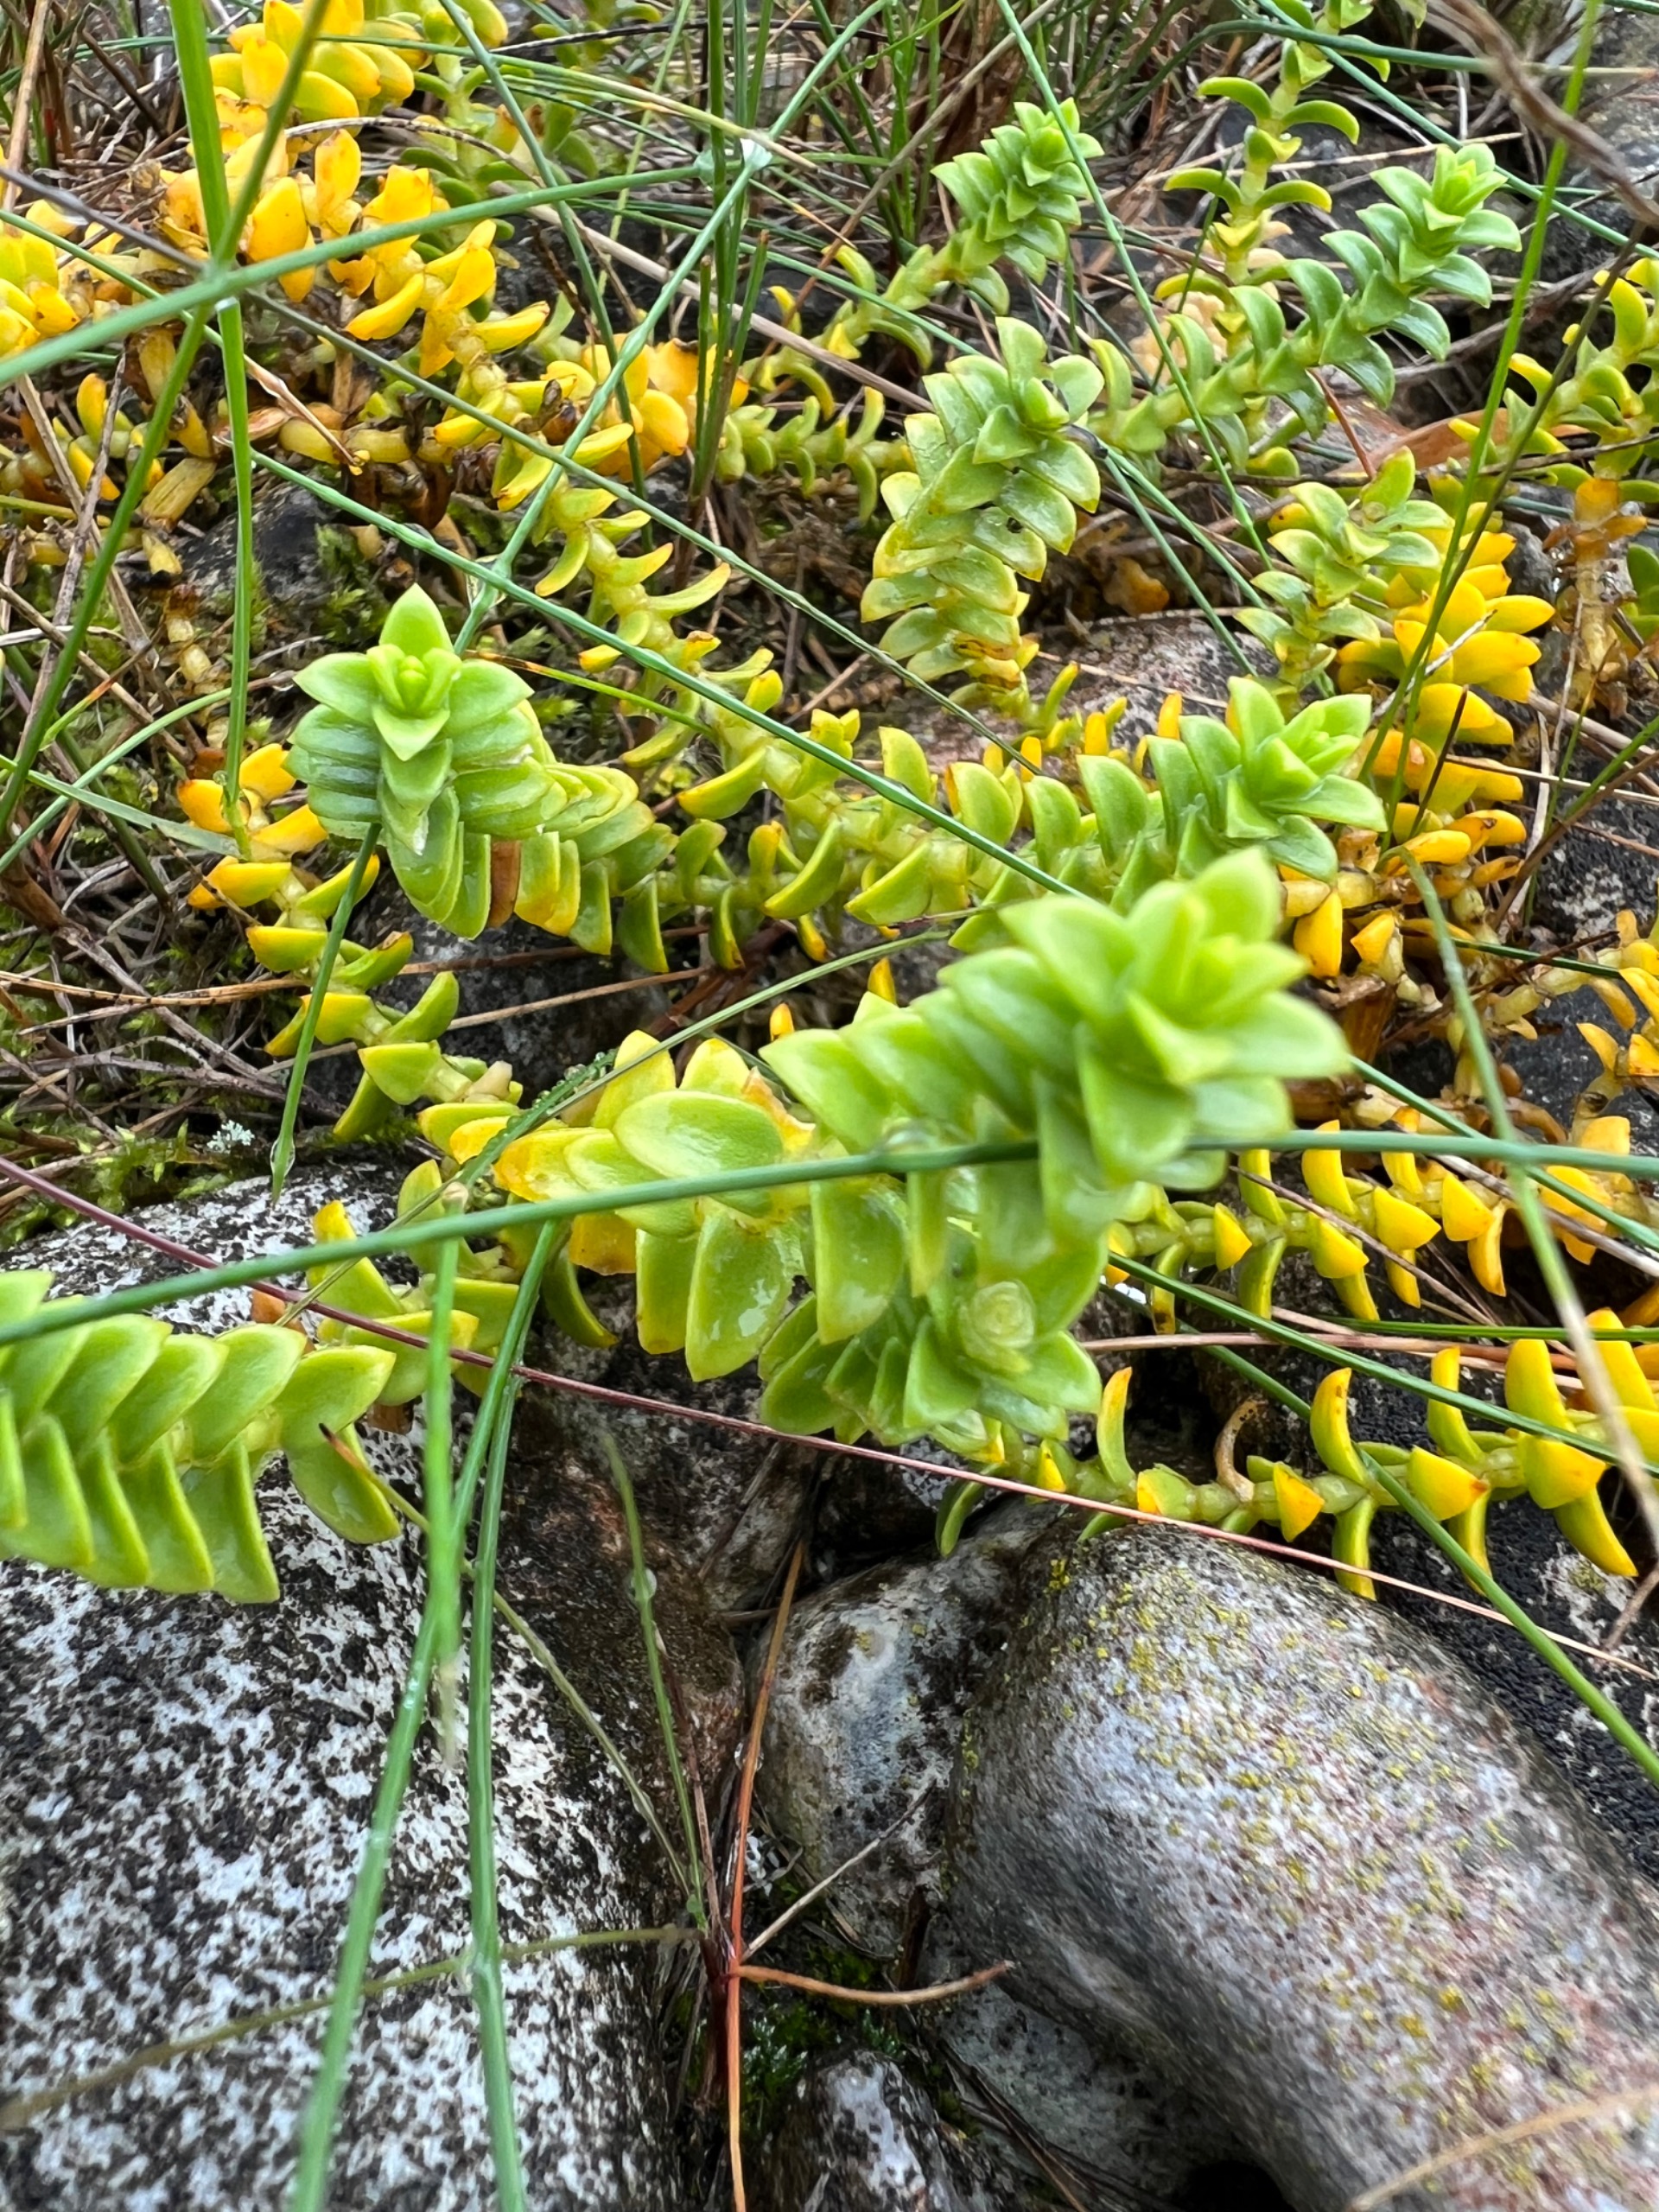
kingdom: Plantae
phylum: Tracheophyta
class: Magnoliopsida
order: Caryophyllales
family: Caryophyllaceae
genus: Honckenya
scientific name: Honckenya peploides
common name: Strandarve
